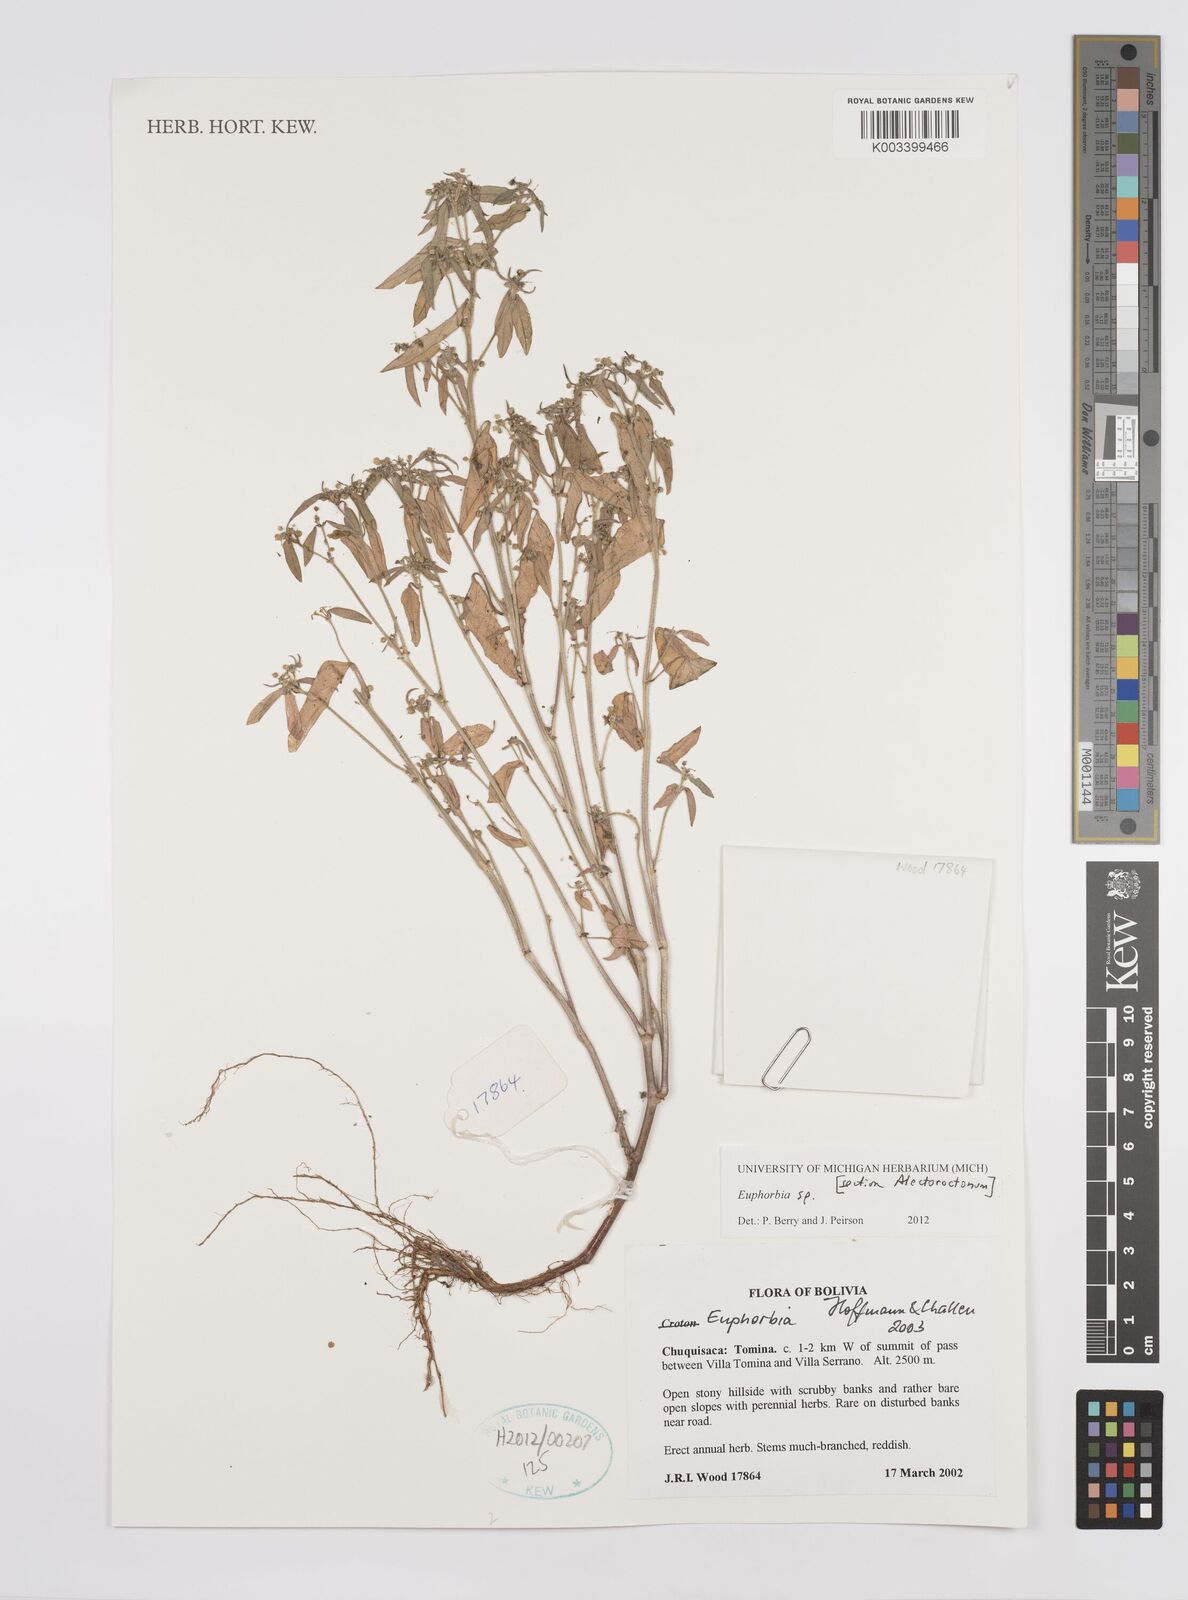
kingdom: Plantae
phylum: Tracheophyta
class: Magnoliopsida
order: Malpighiales
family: Euphorbiaceae
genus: Euphorbia
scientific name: Euphorbia
